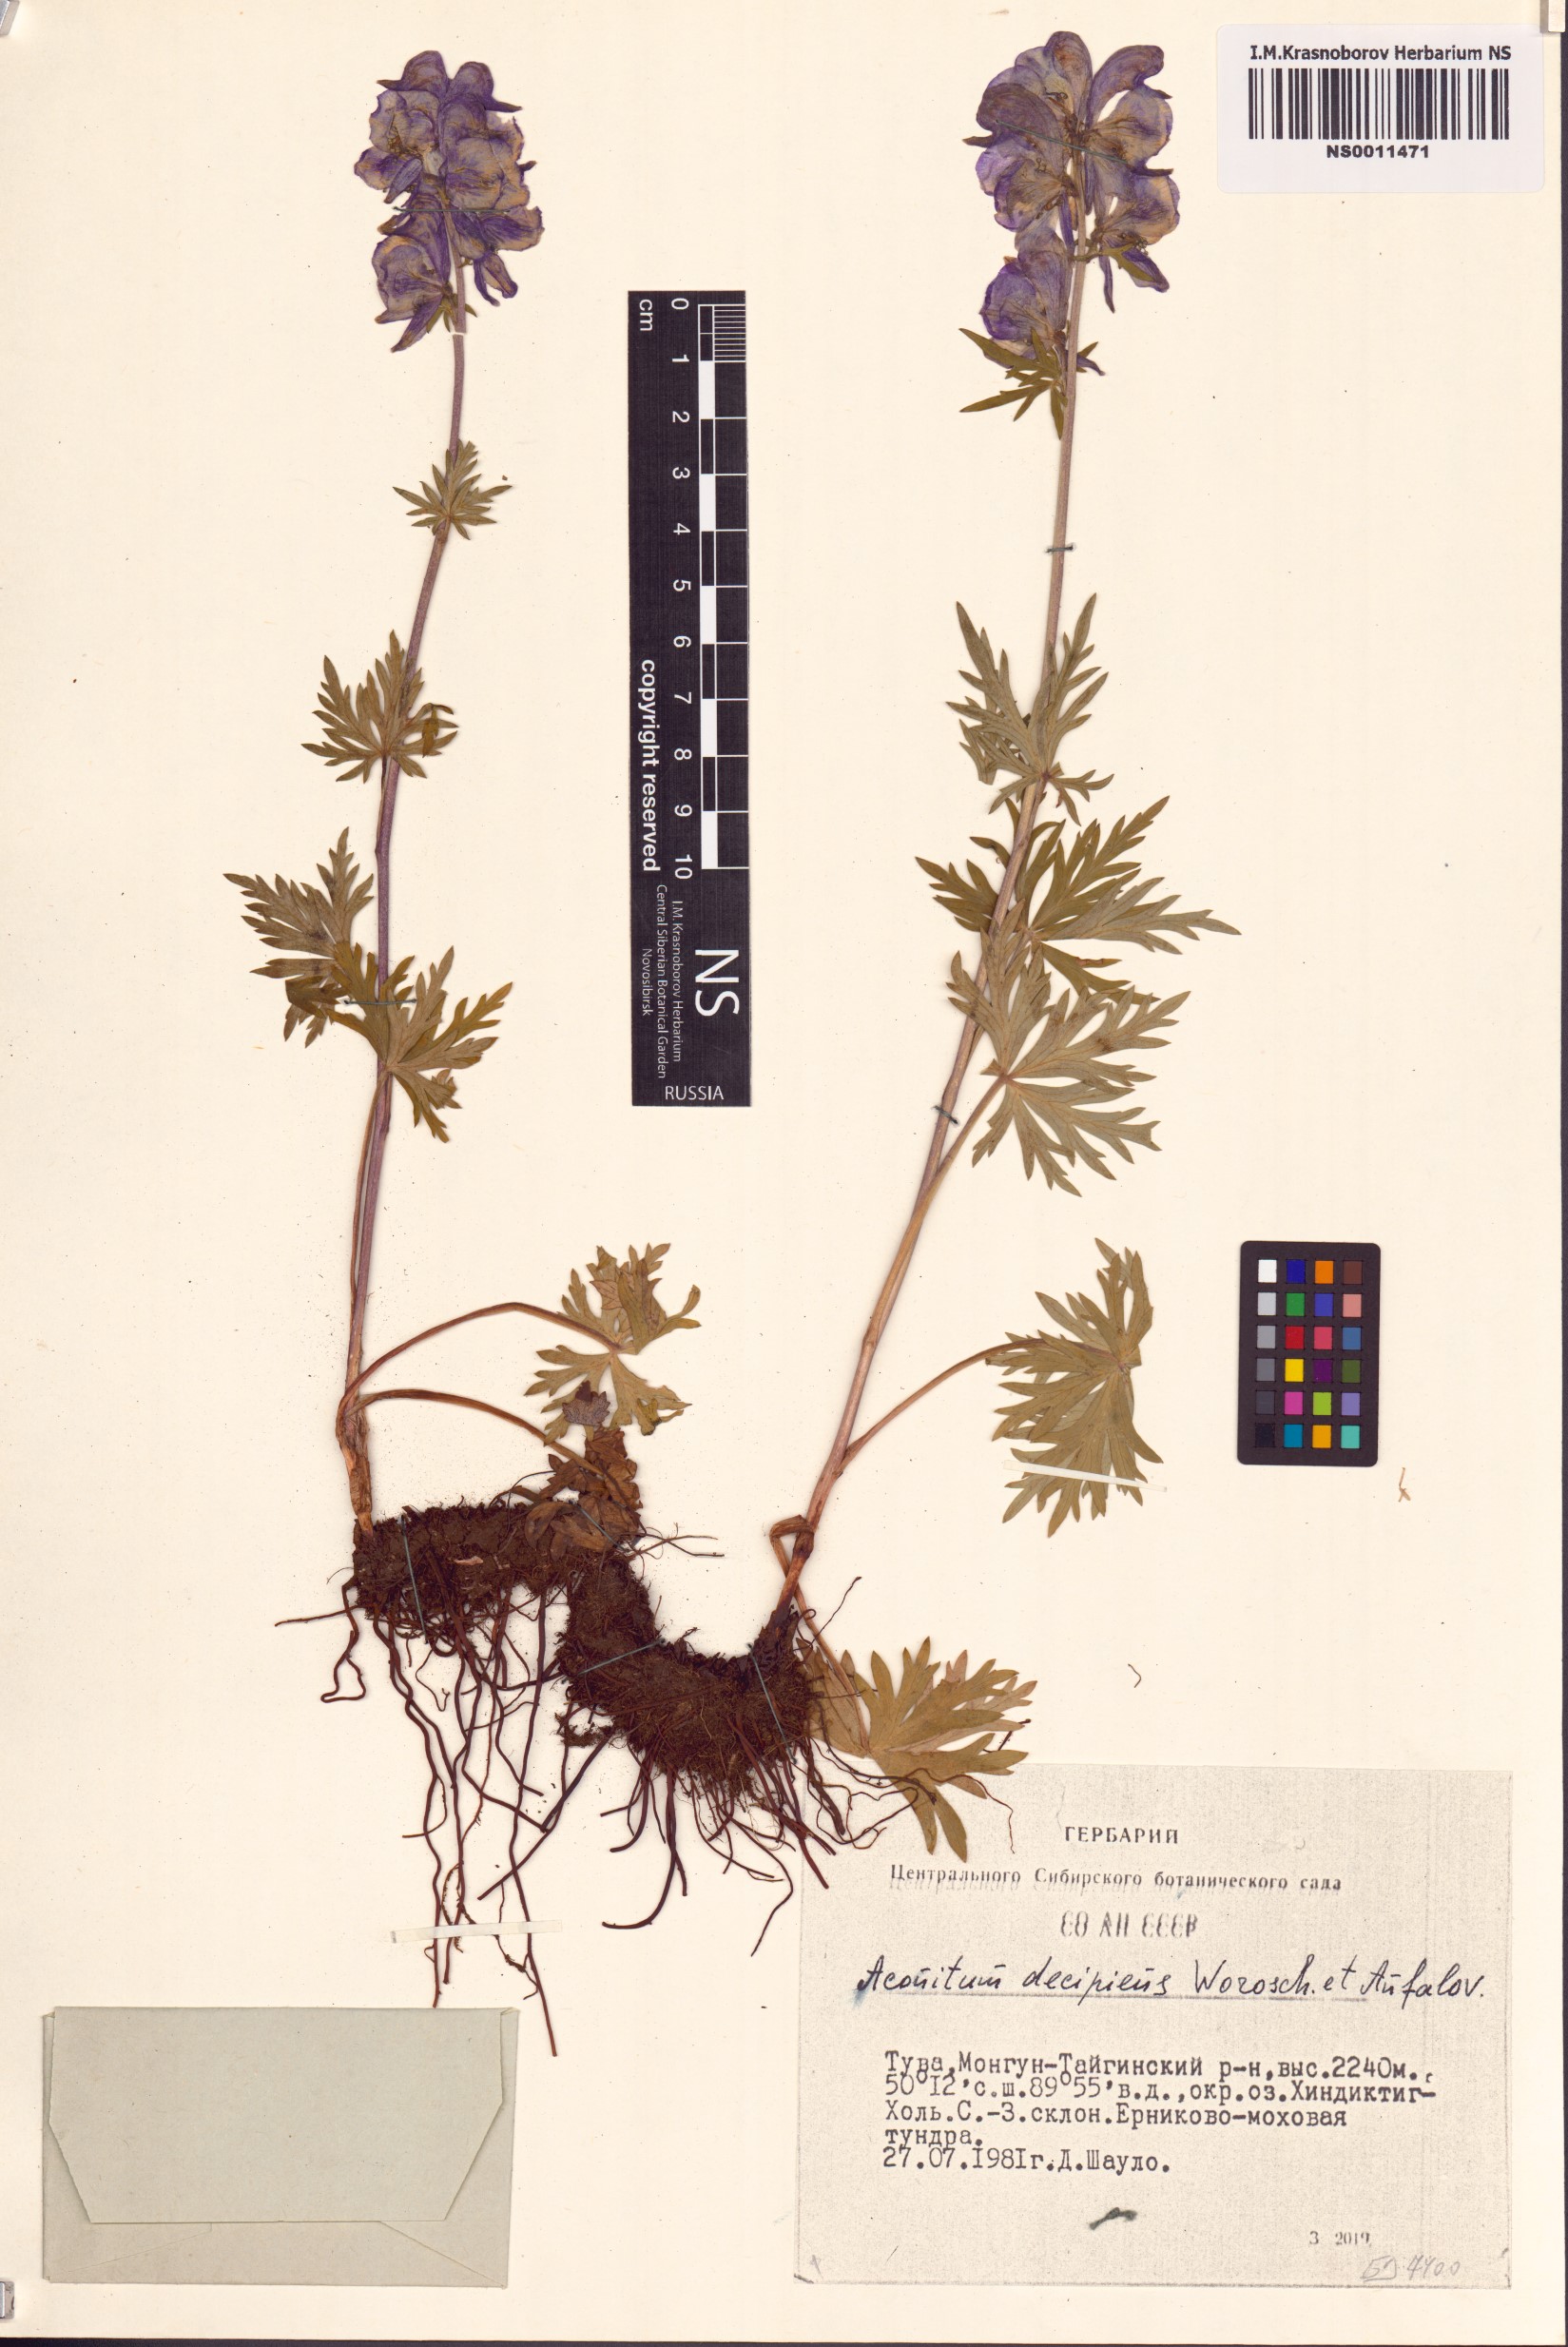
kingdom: Plantae
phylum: Tracheophyta
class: Magnoliopsida
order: Ranunculales
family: Ranunculaceae
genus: Aconitum
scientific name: Aconitum decipiens
